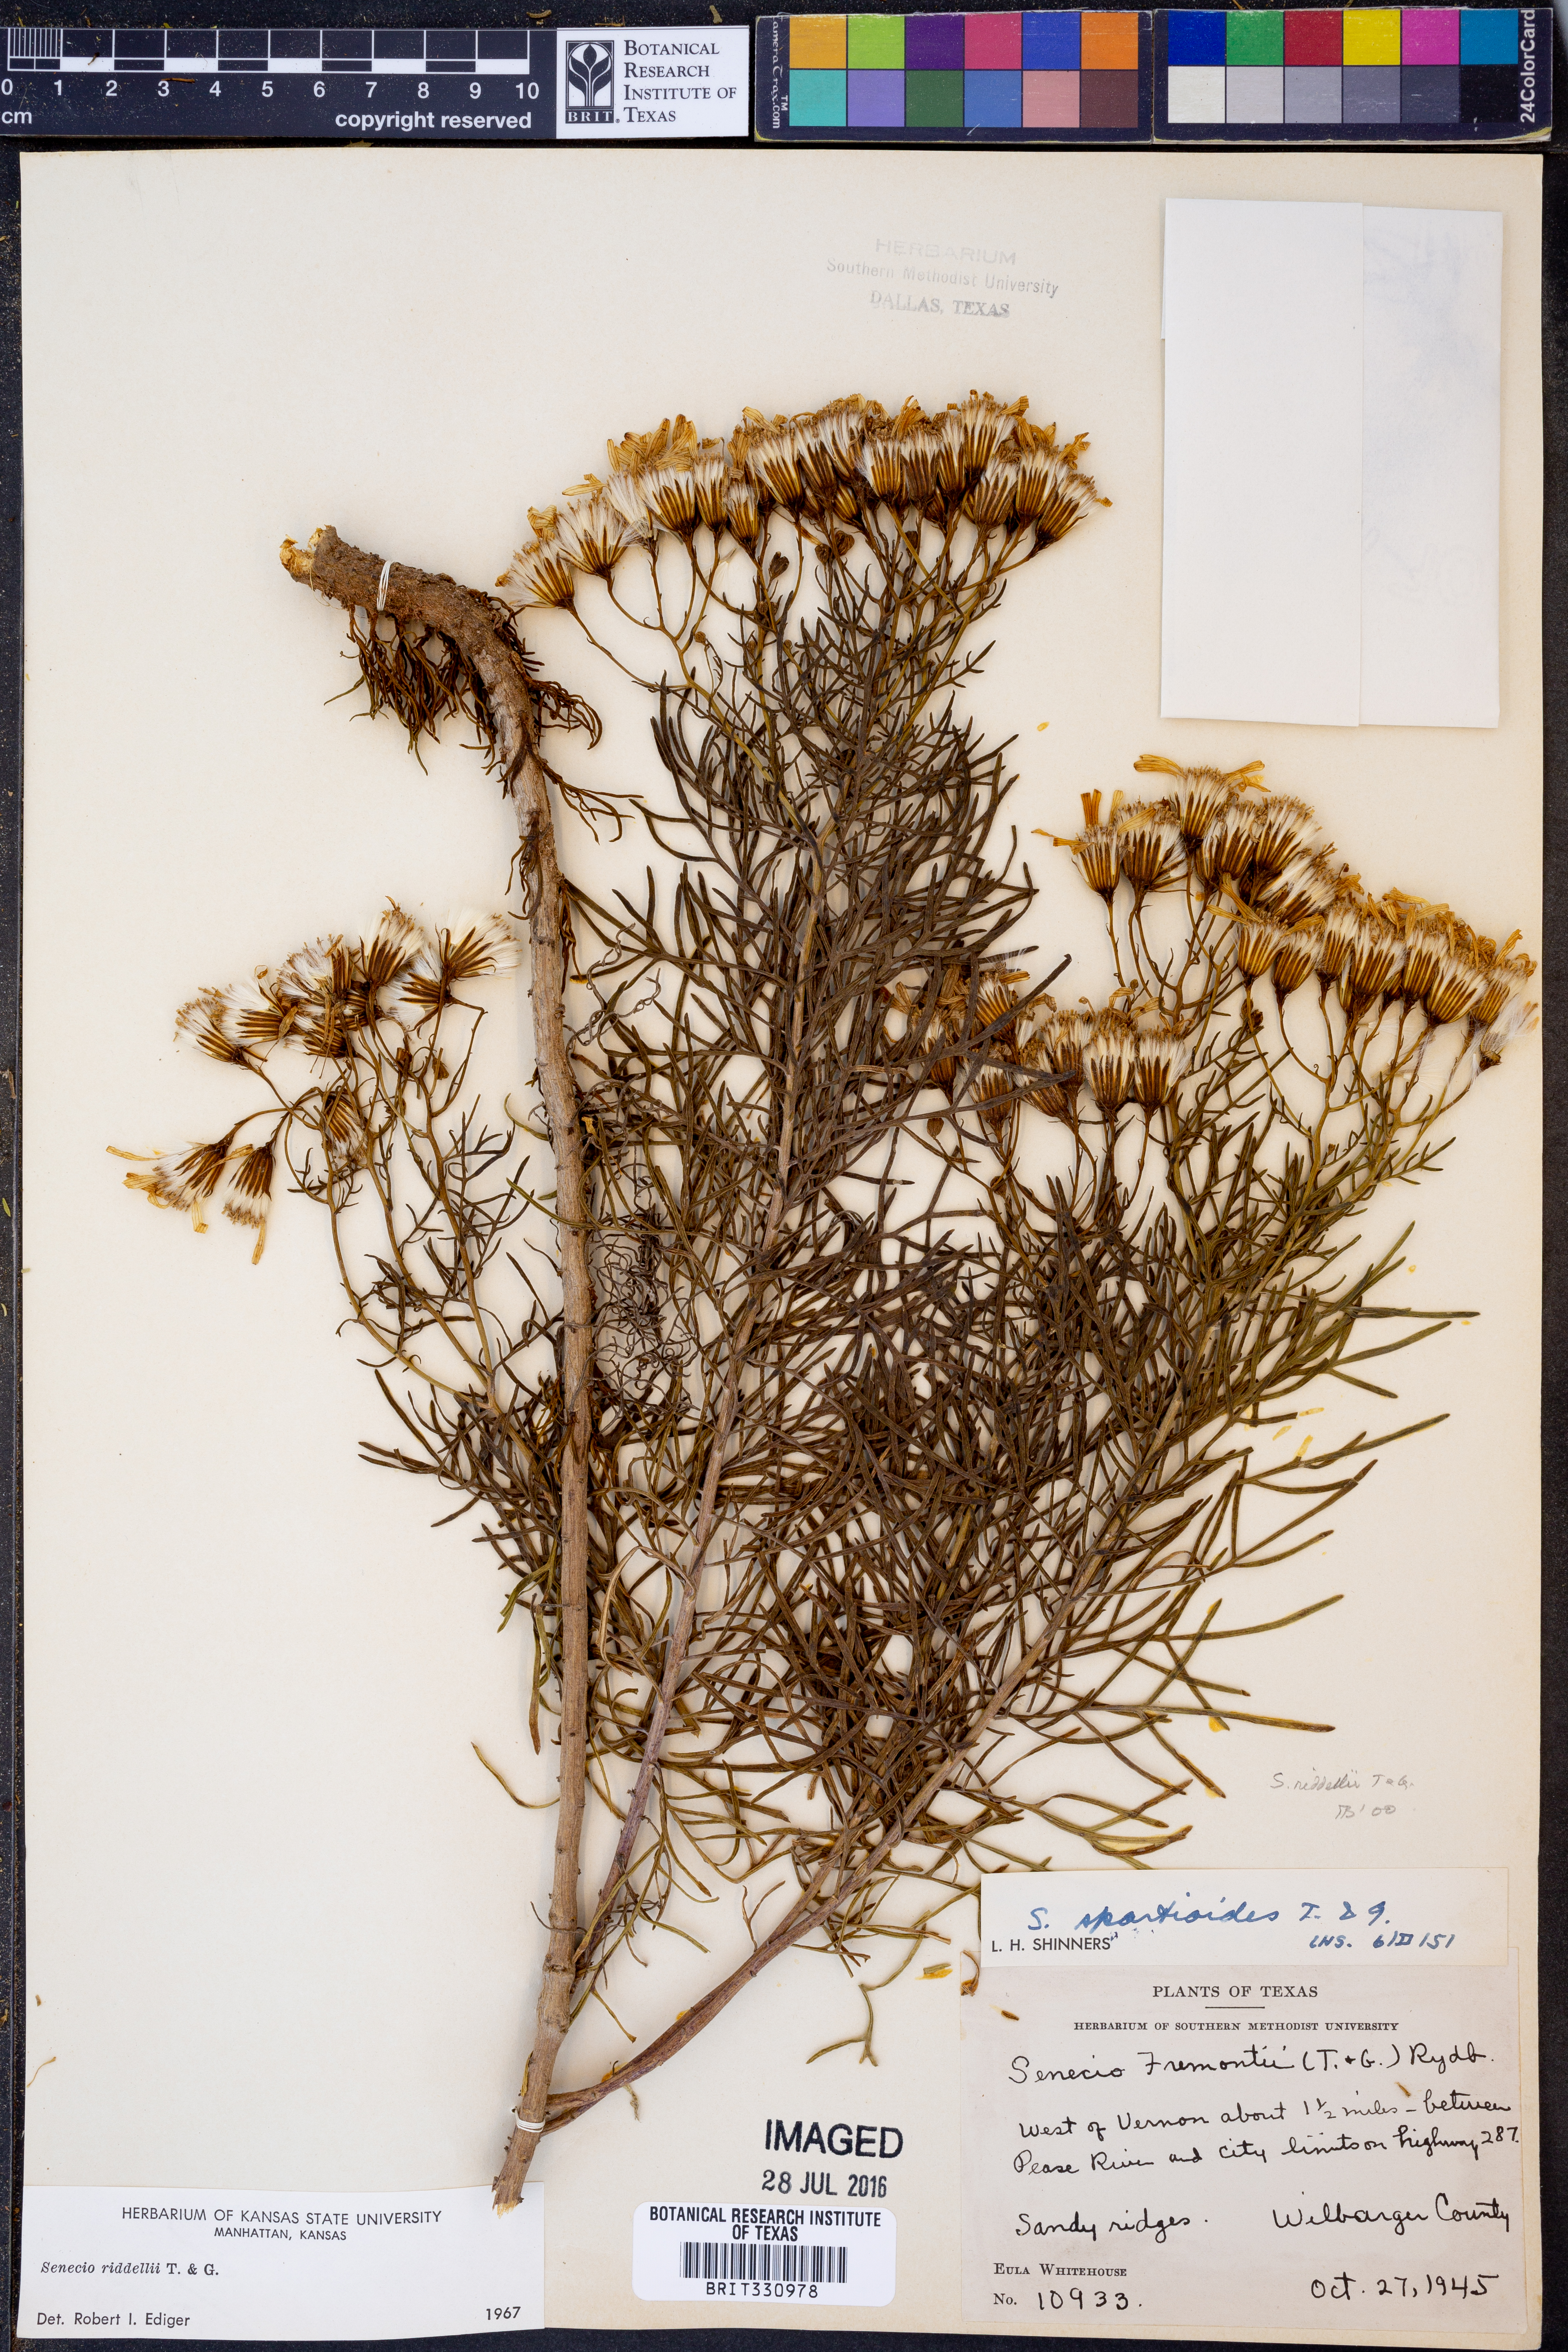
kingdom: Plantae
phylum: Tracheophyta
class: Magnoliopsida
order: Asterales
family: Asteraceae
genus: Senecio
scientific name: Senecio riddellii
